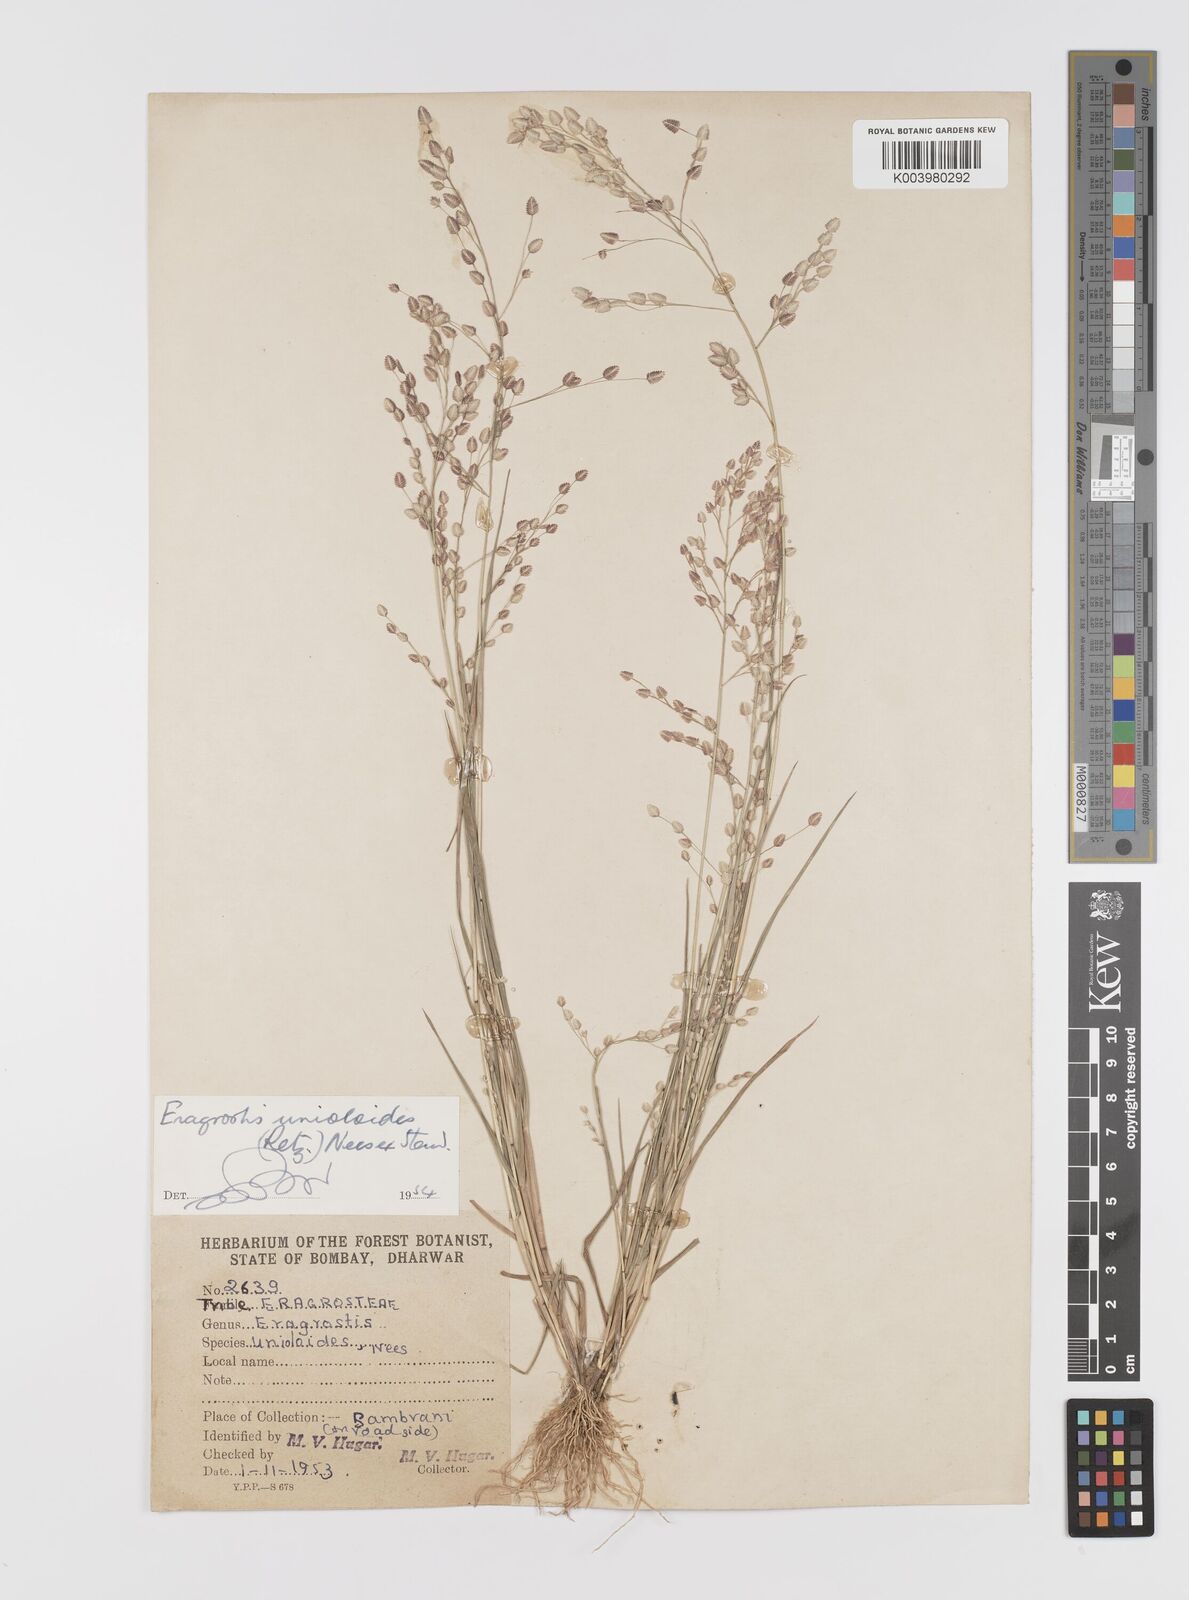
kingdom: Plantae
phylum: Tracheophyta
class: Liliopsida
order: Poales
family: Poaceae
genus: Eragrostis
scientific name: Eragrostis unioloides
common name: Chinese lovegrass
